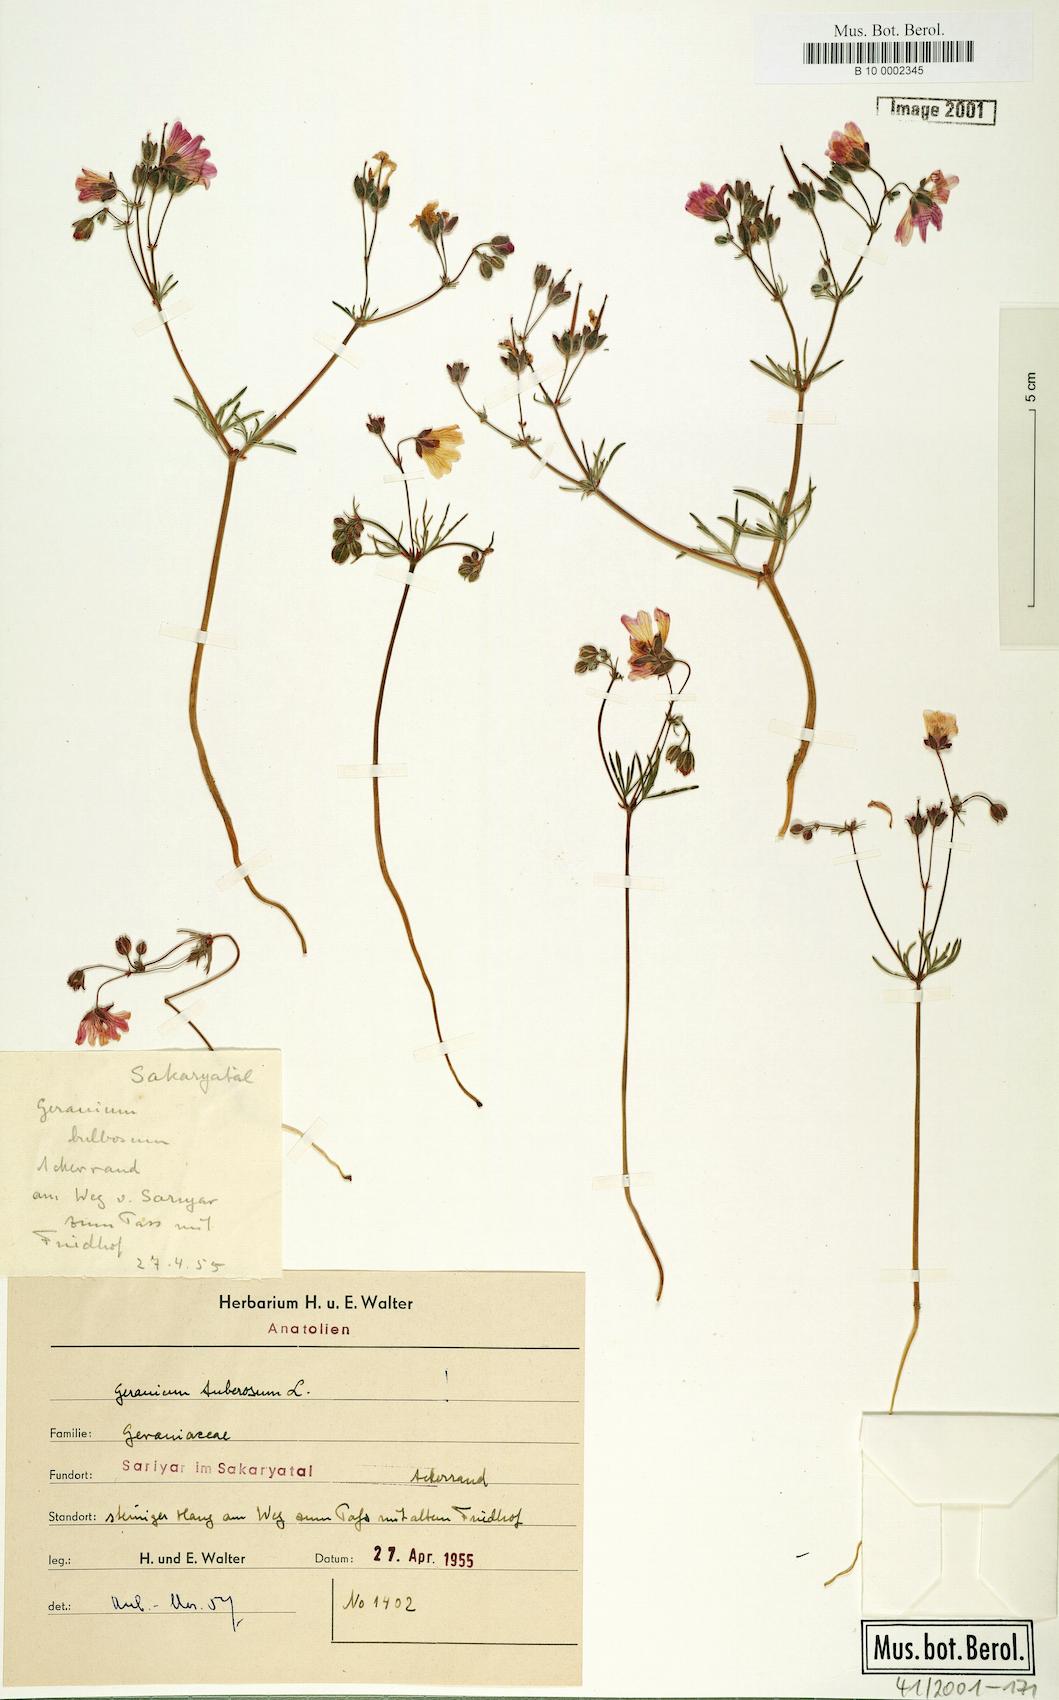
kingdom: Plantae
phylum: Tracheophyta
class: Magnoliopsida
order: Geraniales
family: Geraniaceae
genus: Geranium
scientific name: Geranium tuberosum
